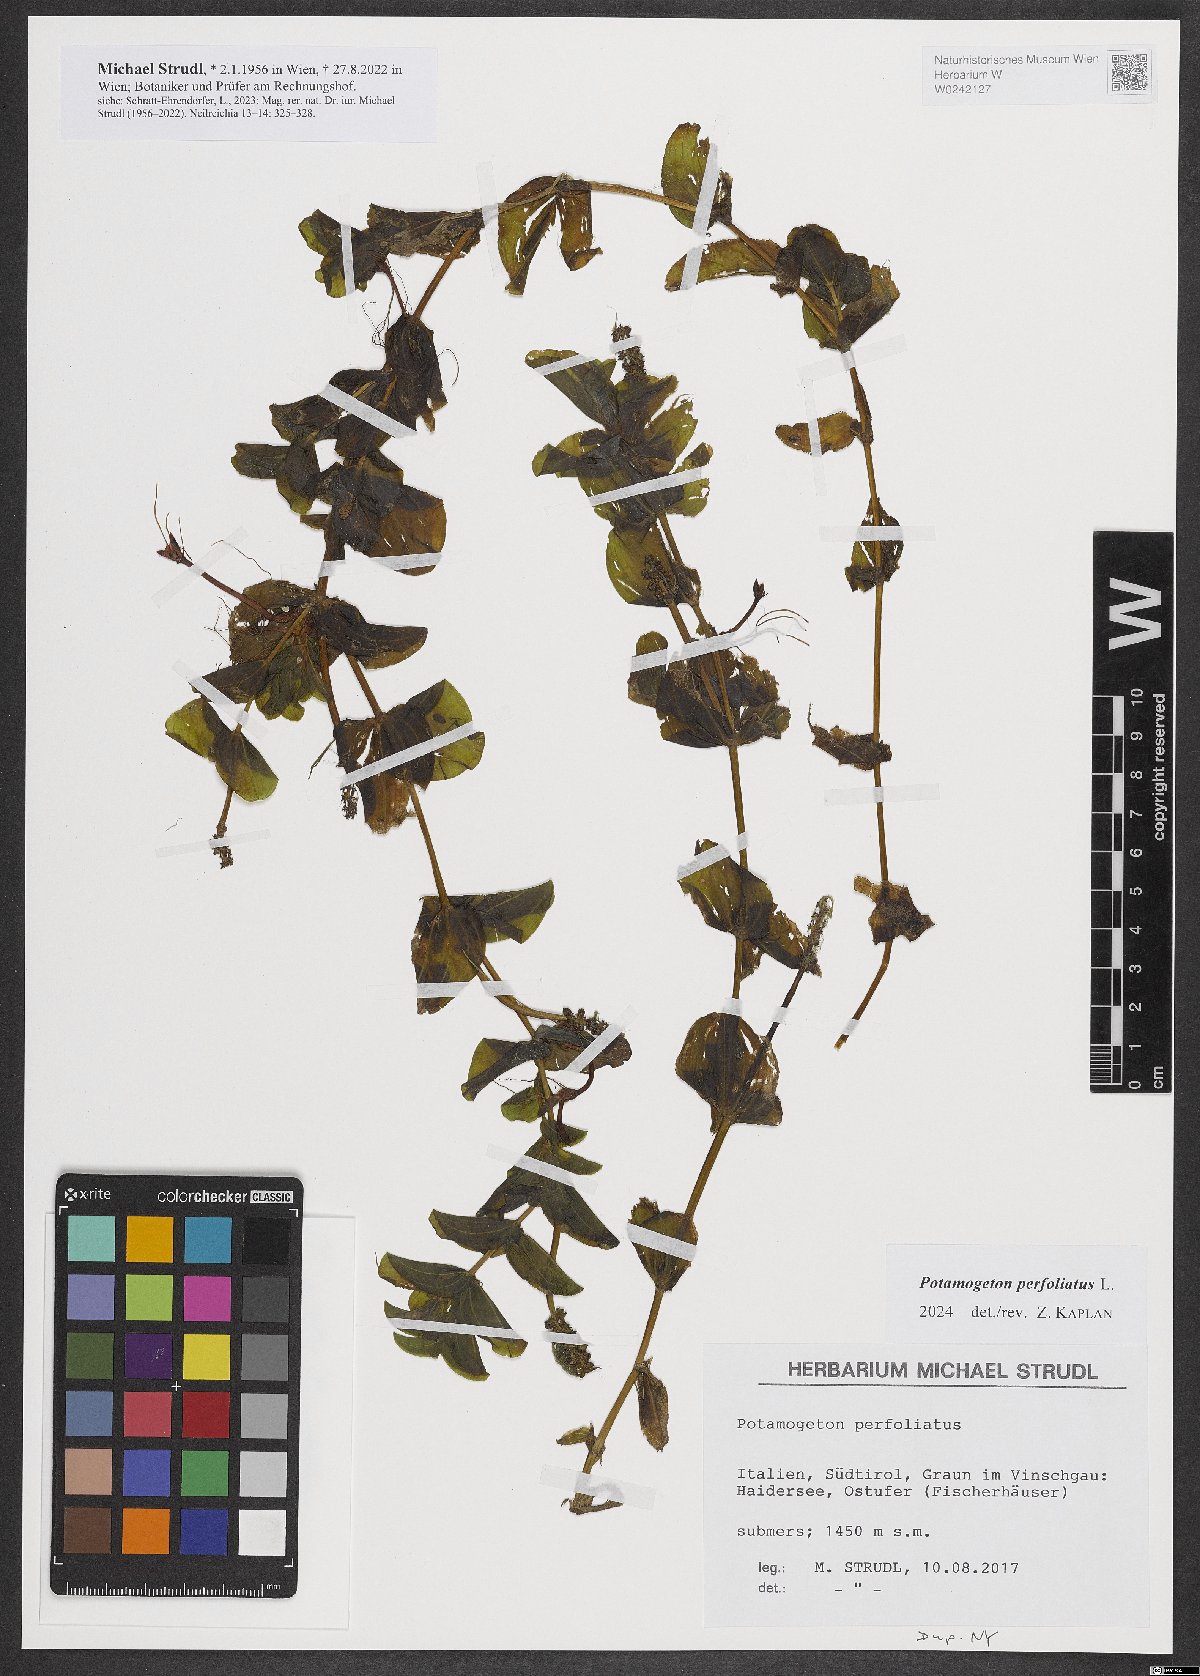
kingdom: Plantae
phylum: Tracheophyta
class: Liliopsida
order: Alismatales
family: Potamogetonaceae
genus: Potamogeton
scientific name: Potamogeton nodosus
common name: Loddon pondweed
